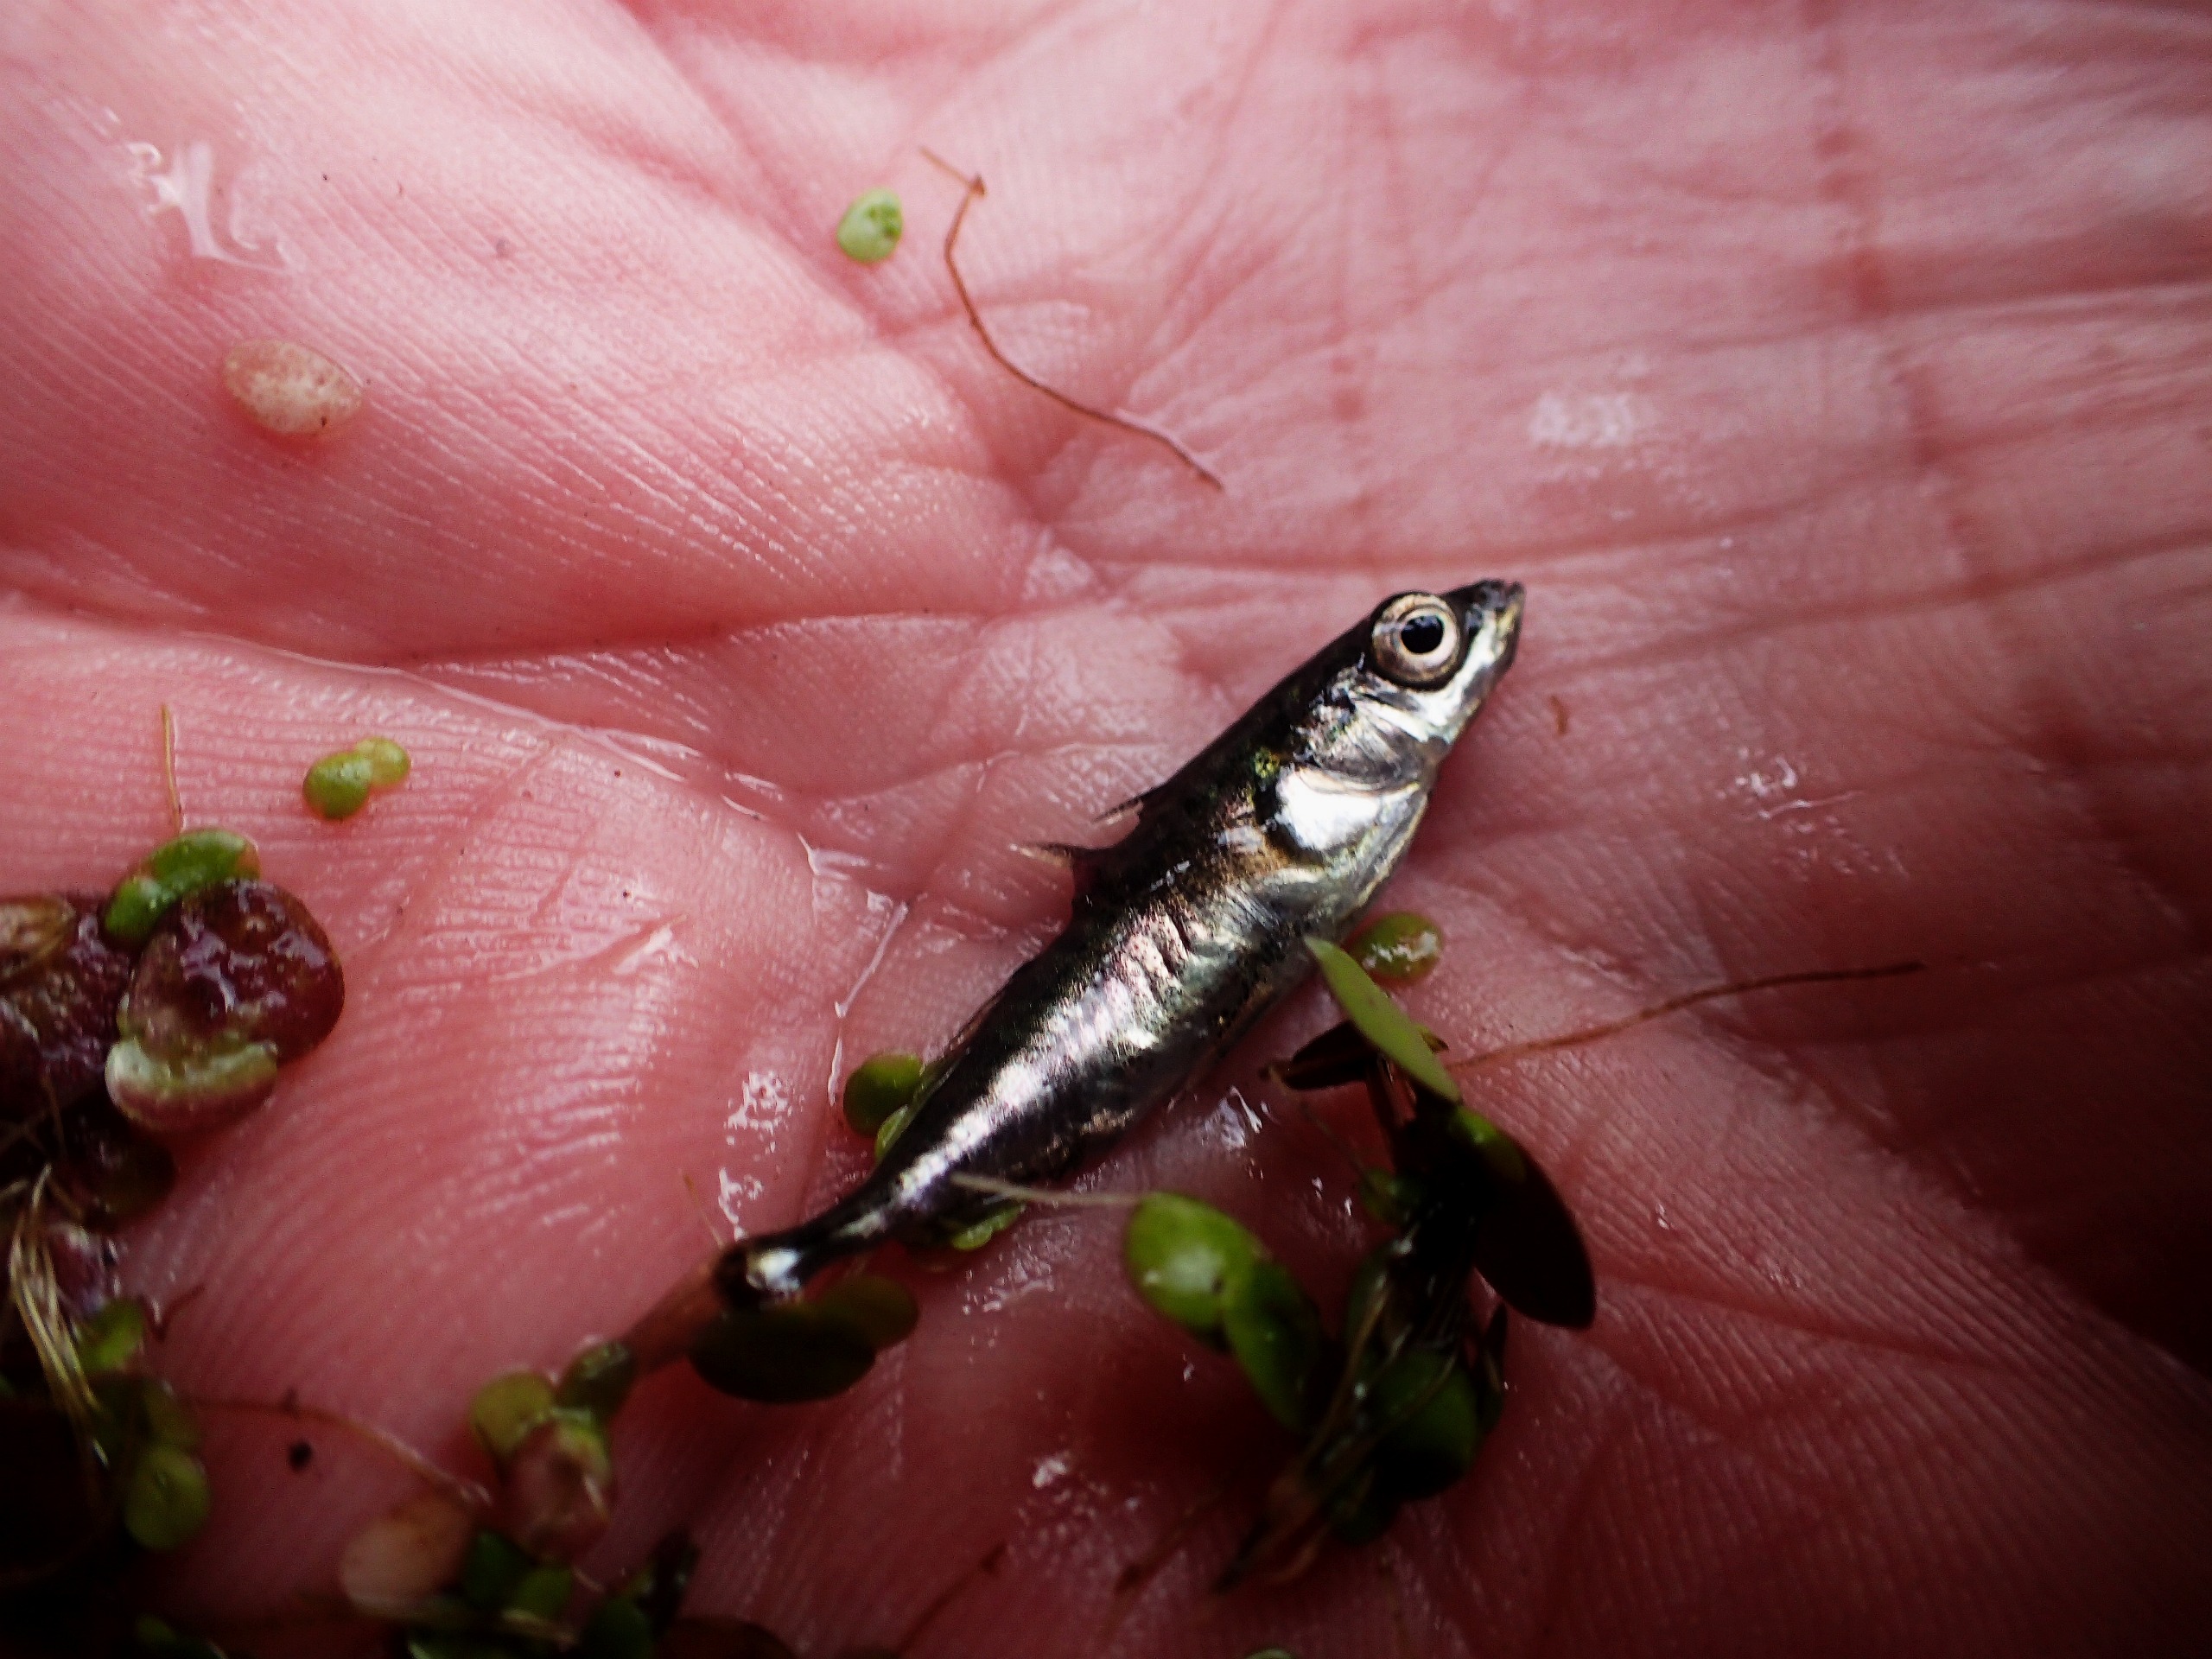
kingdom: Animalia
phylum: Chordata
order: Gasterosteiformes
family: Gasterosteidae
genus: Gasterosteus
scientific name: Gasterosteus aculeatus
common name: Trepigget hundestejle
